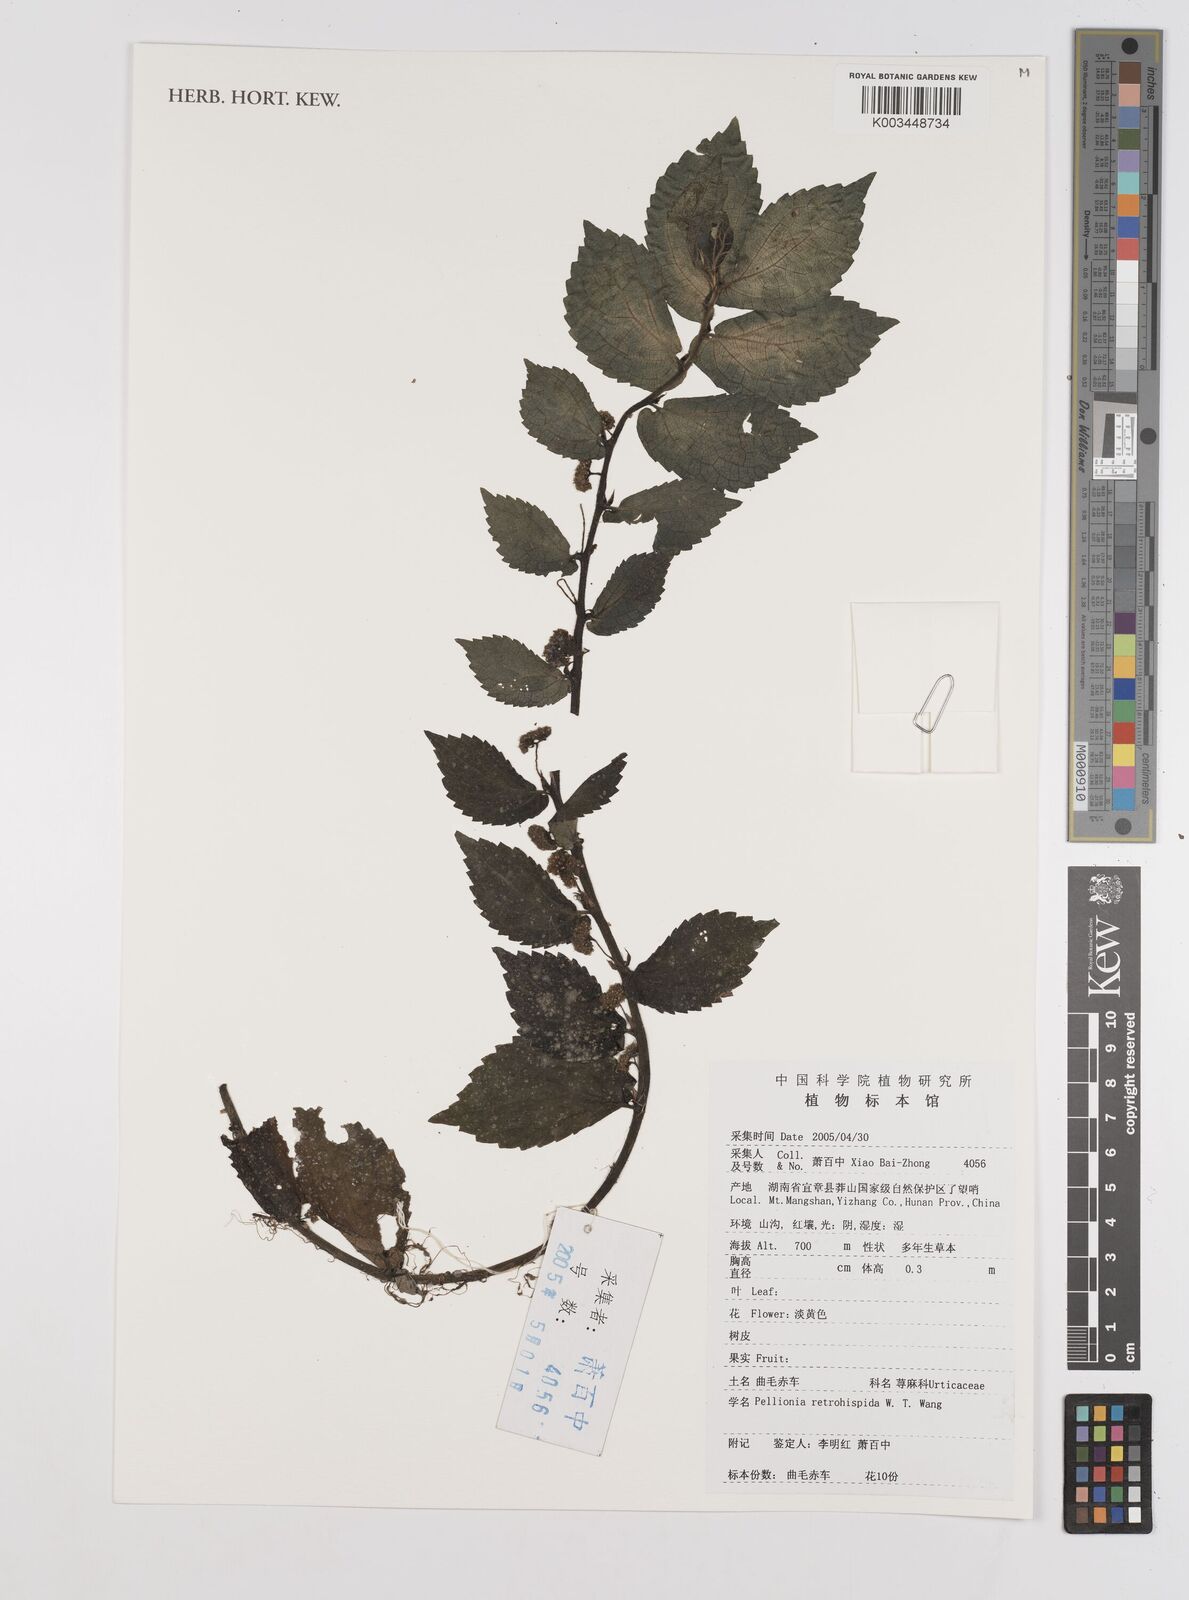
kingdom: Plantae
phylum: Tracheophyta
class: Magnoliopsida
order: Rosales
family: Urticaceae
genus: Elatostema
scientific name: Elatostema hirticaule
